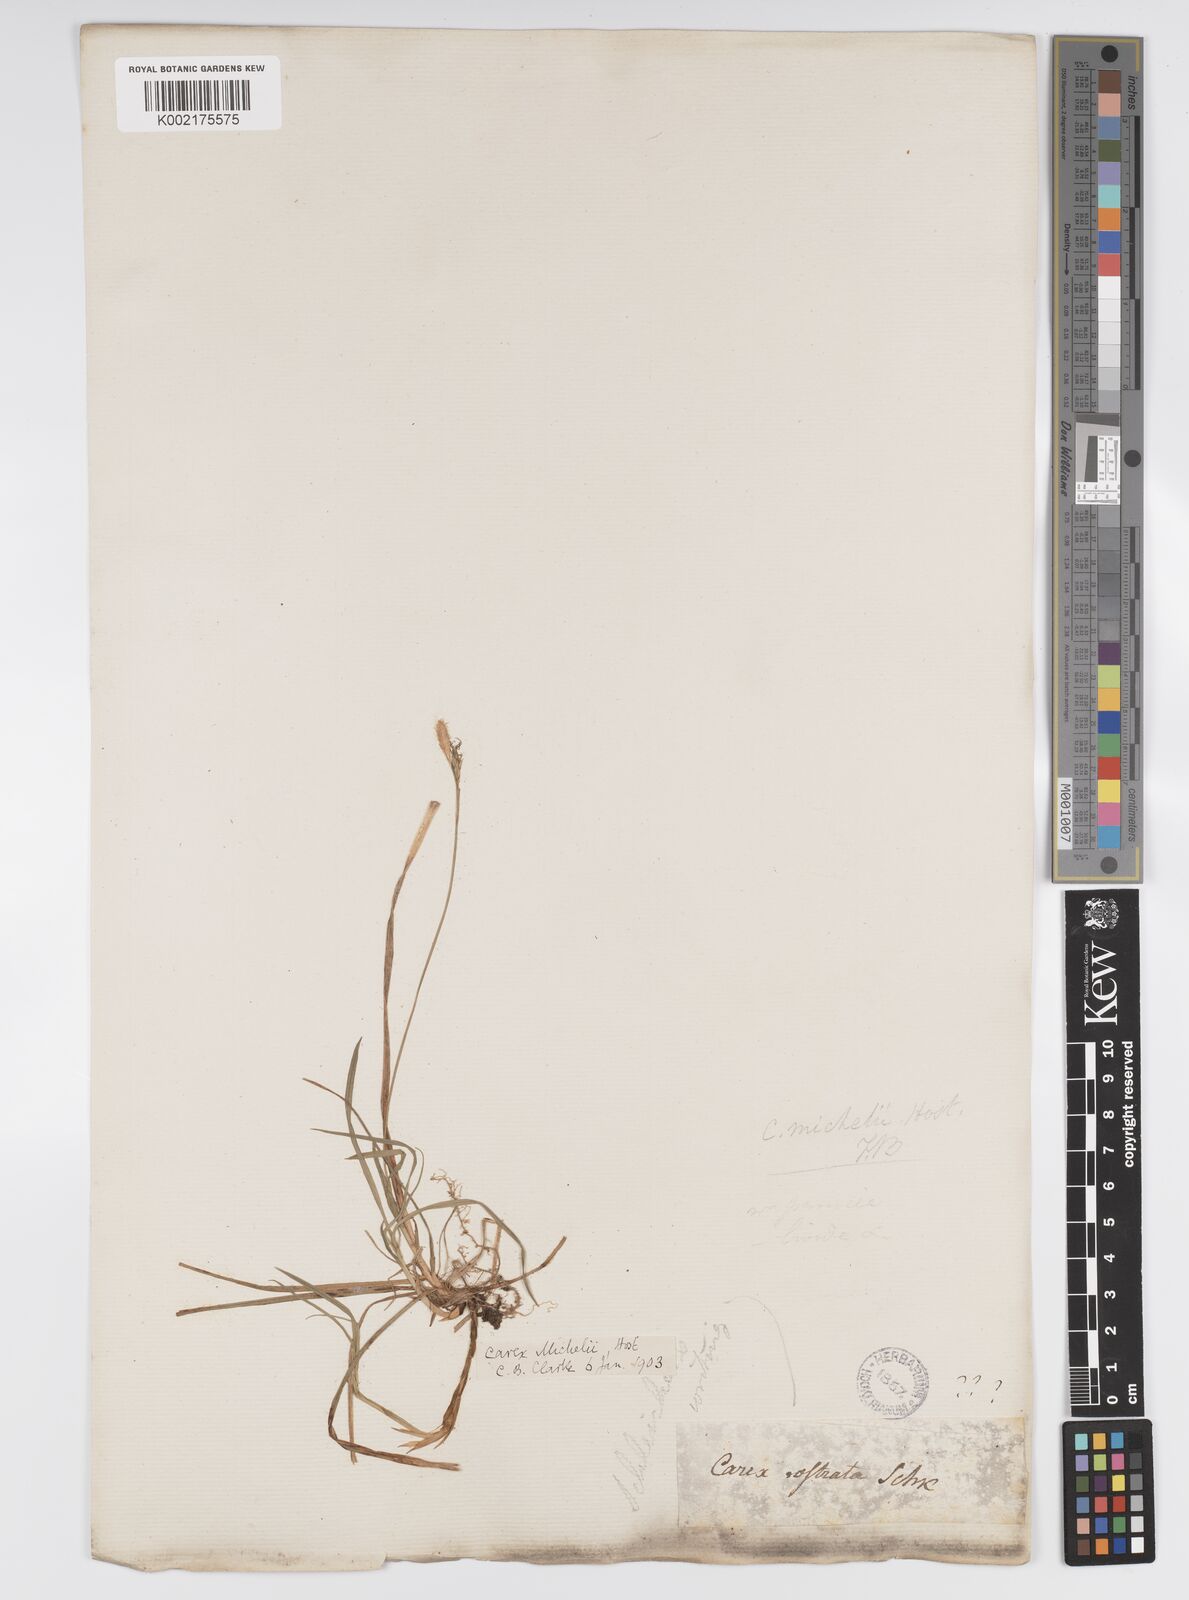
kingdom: Plantae
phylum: Tracheophyta
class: Liliopsida
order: Poales
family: Cyperaceae
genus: Carex
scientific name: Carex michelii
